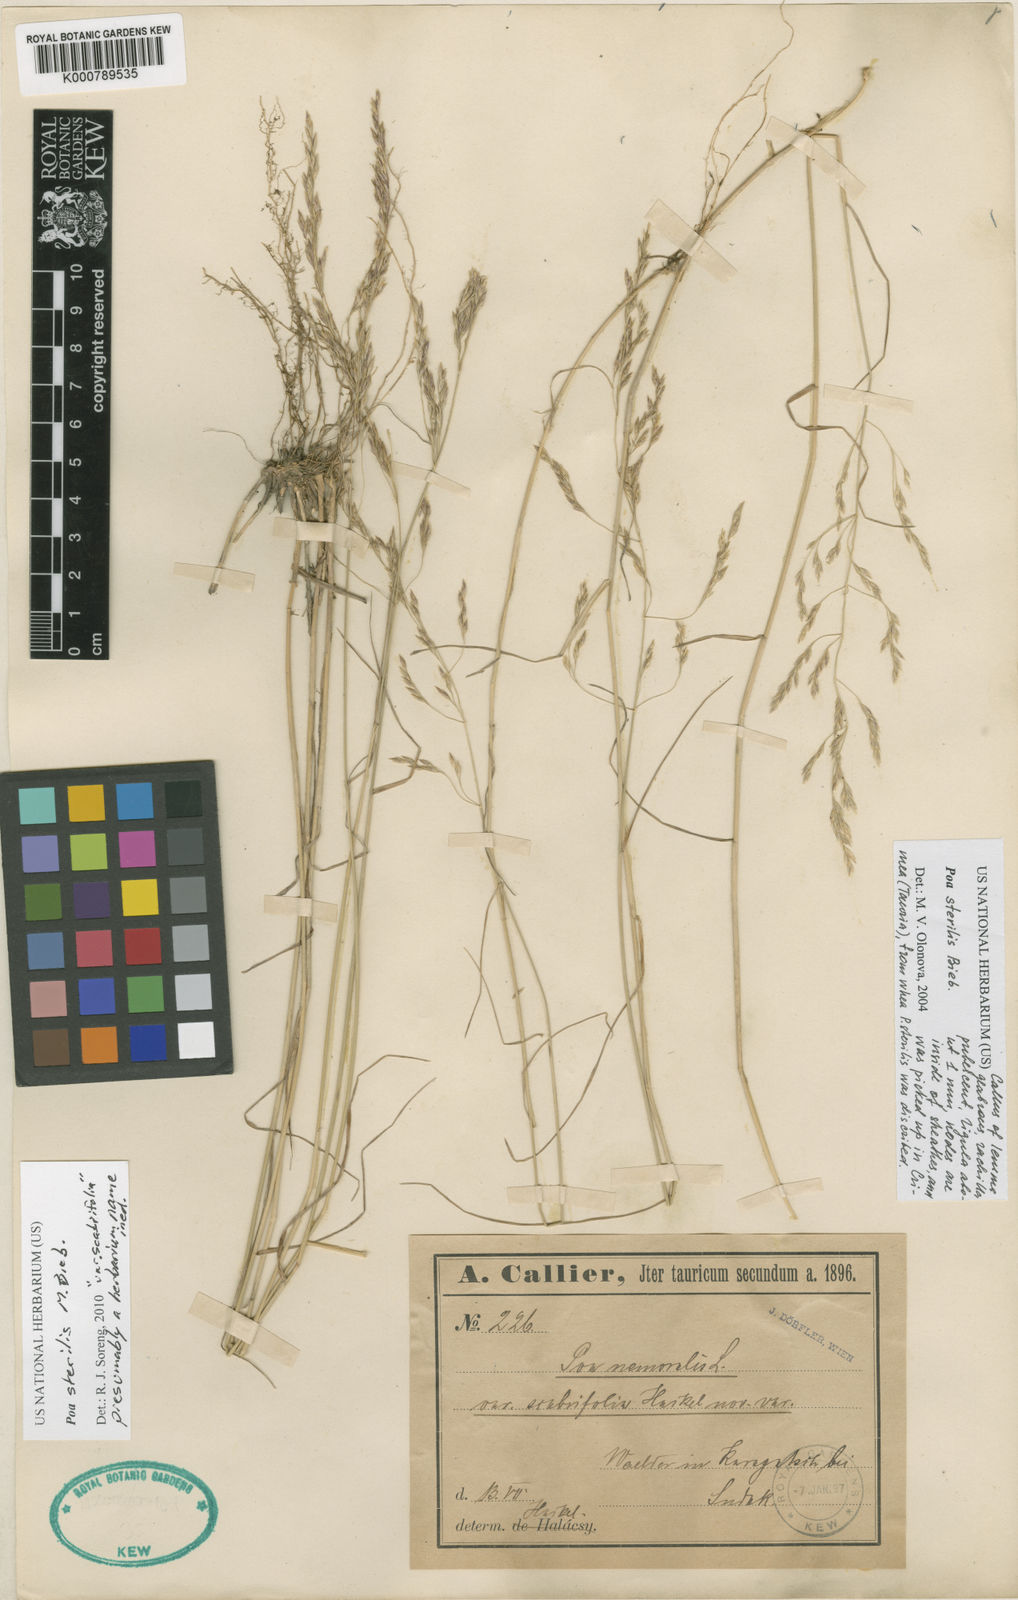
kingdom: Plantae
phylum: Tracheophyta
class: Liliopsida
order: Poales
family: Poaceae
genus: Poa
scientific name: Poa sterilis
